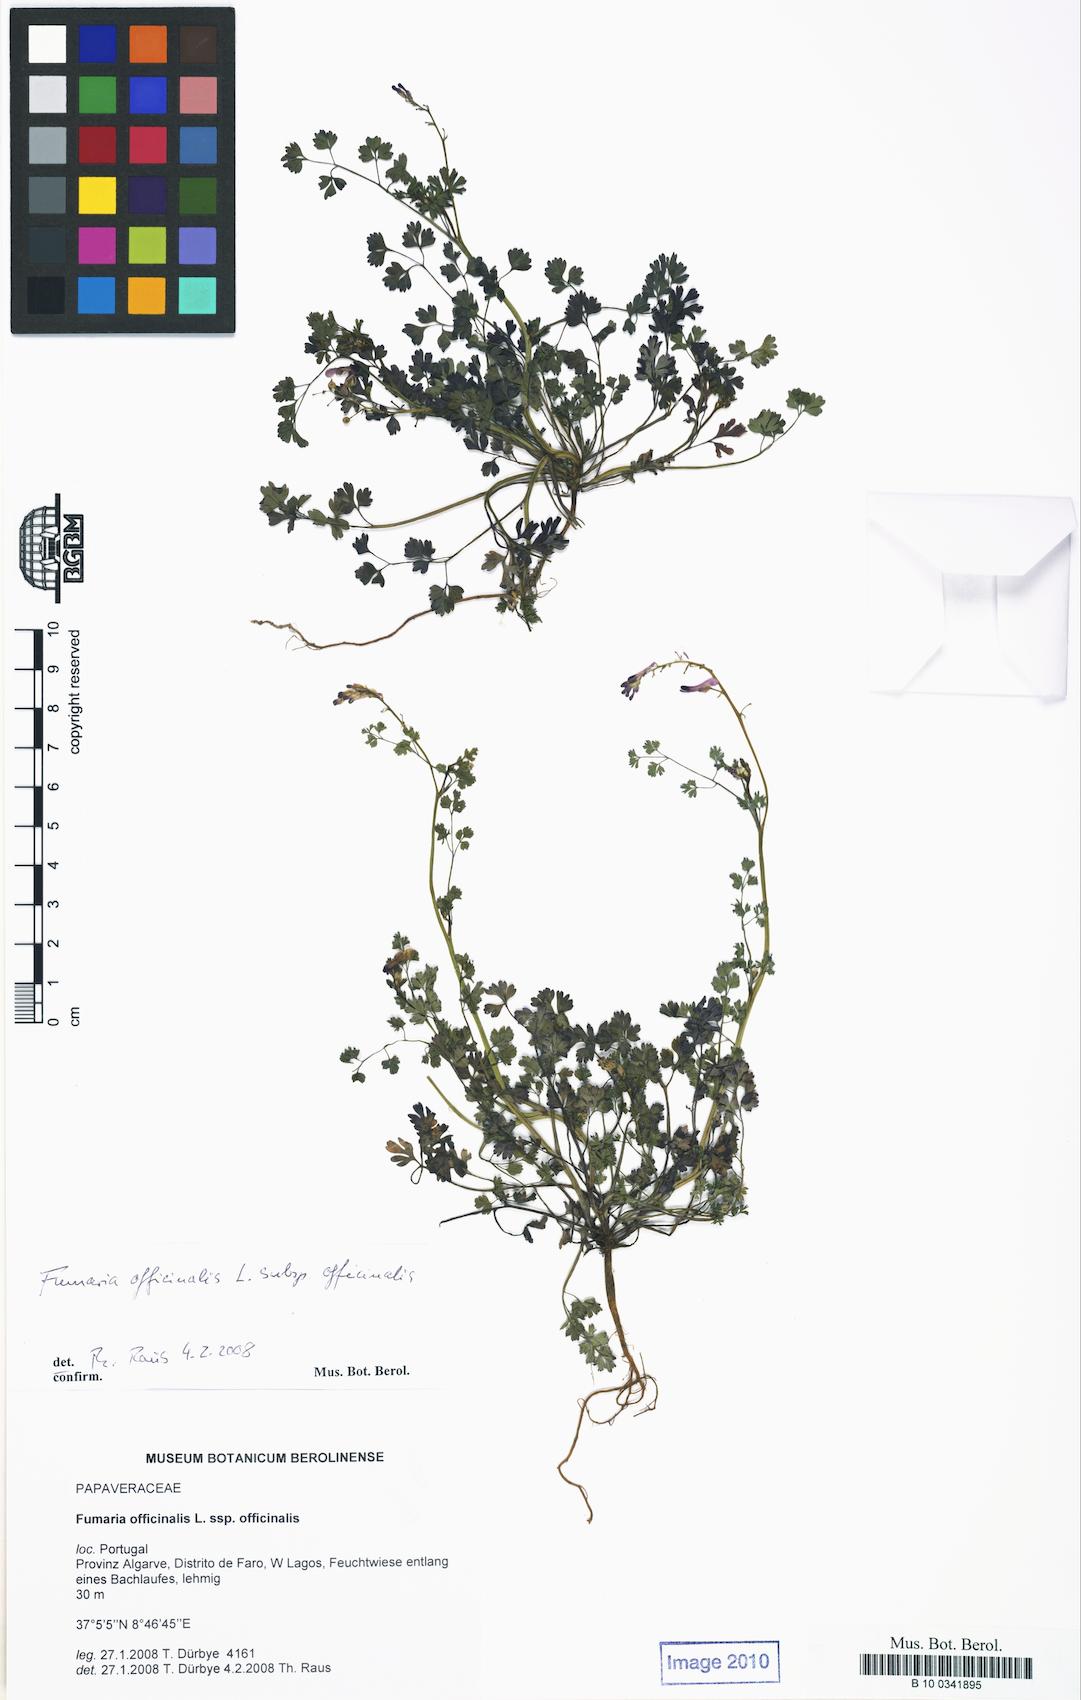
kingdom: Plantae
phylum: Tracheophyta
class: Magnoliopsida
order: Ranunculales
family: Papaveraceae
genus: Fumaria
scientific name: Fumaria officinalis
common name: Common fumitory
